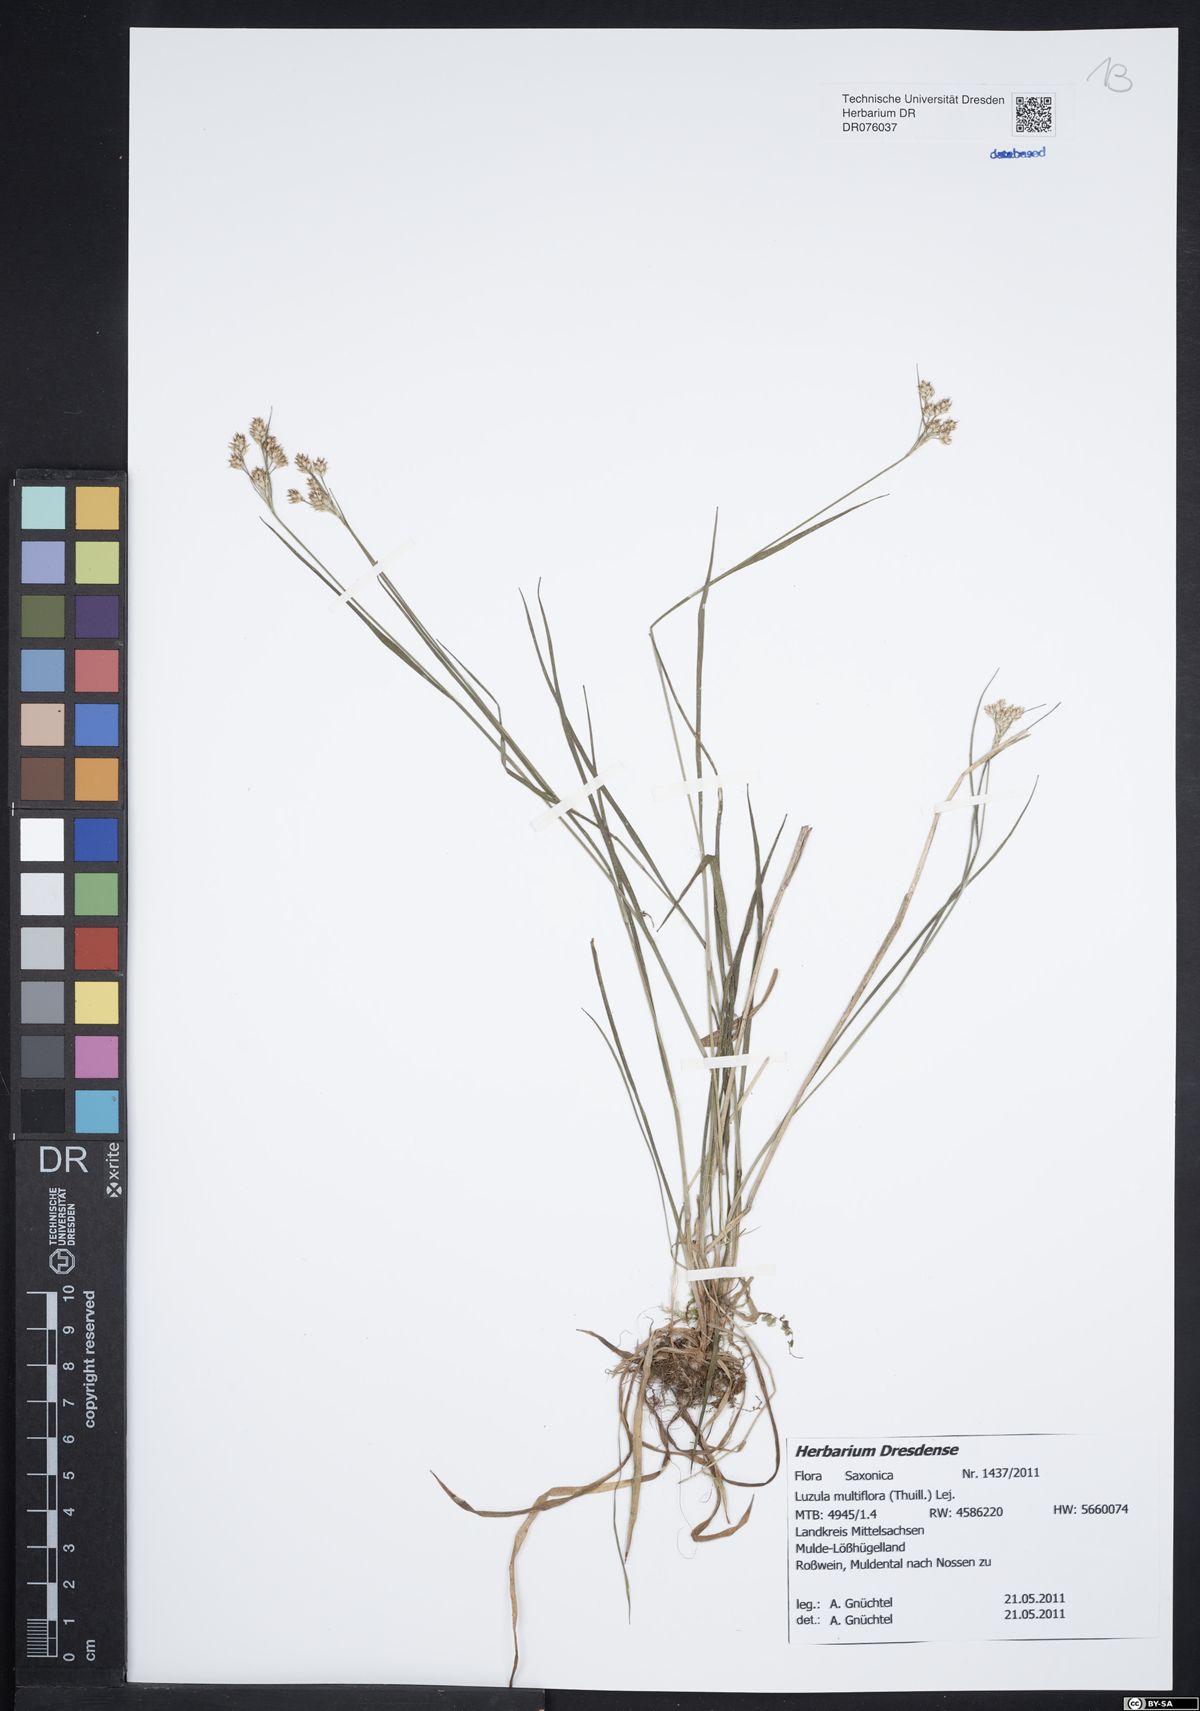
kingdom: Plantae
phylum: Tracheophyta
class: Liliopsida
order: Poales
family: Juncaceae
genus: Luzula
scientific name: Luzula multiflora
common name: Heath wood-rush
